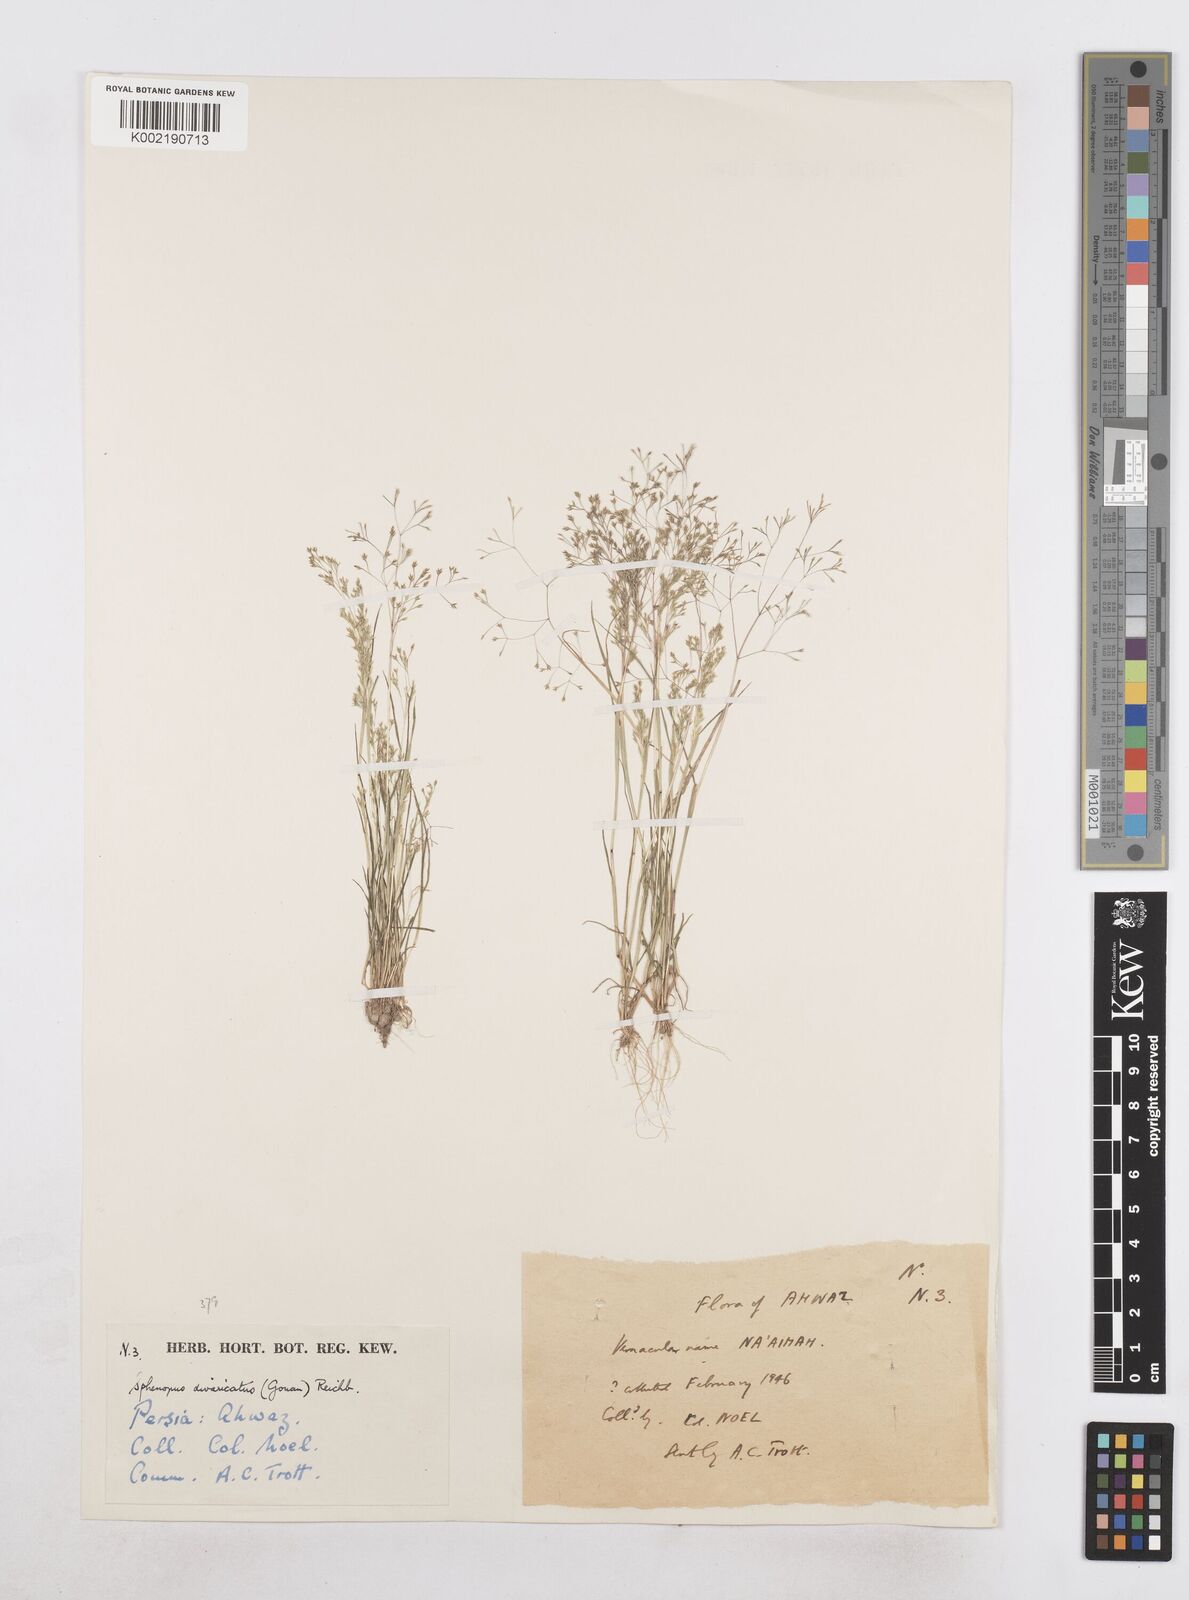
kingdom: Plantae
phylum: Tracheophyta
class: Liliopsida
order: Poales
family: Poaceae
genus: Sphenopus
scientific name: Sphenopus divaricatus
